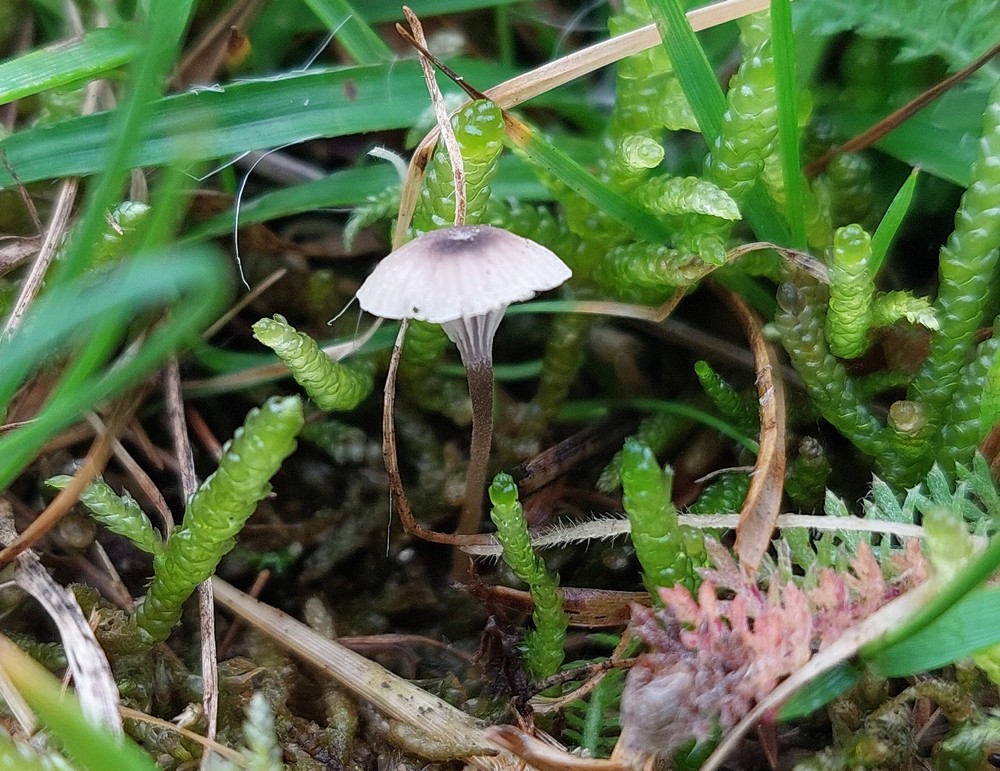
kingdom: Fungi
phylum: Basidiomycota
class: Agaricomycetes
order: Hymenochaetales
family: Rickenellaceae
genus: Rickenella
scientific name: Rickenella swartzii
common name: finstokket mosnavlehat
